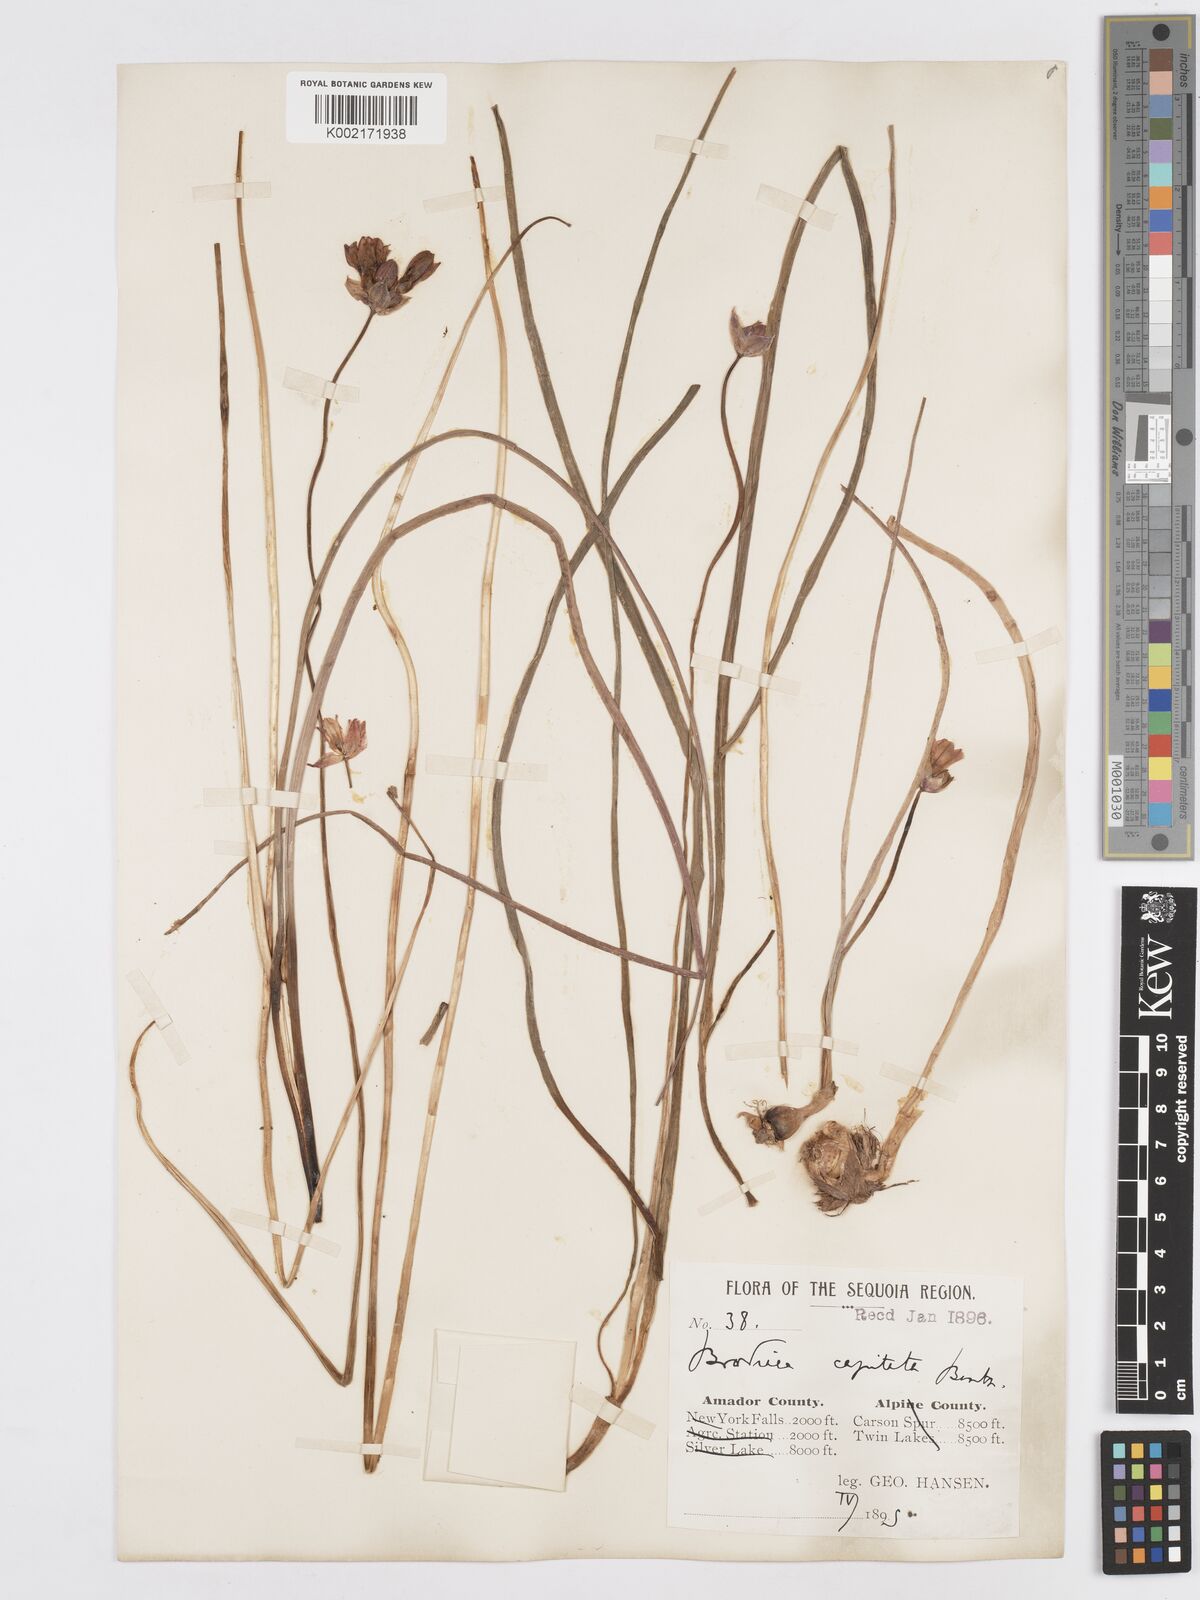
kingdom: Plantae
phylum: Tracheophyta
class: Liliopsida
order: Asparagales
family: Asparagaceae
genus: Dichelostemma
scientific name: Dichelostemma congestum
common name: Fork-tooth ookow
